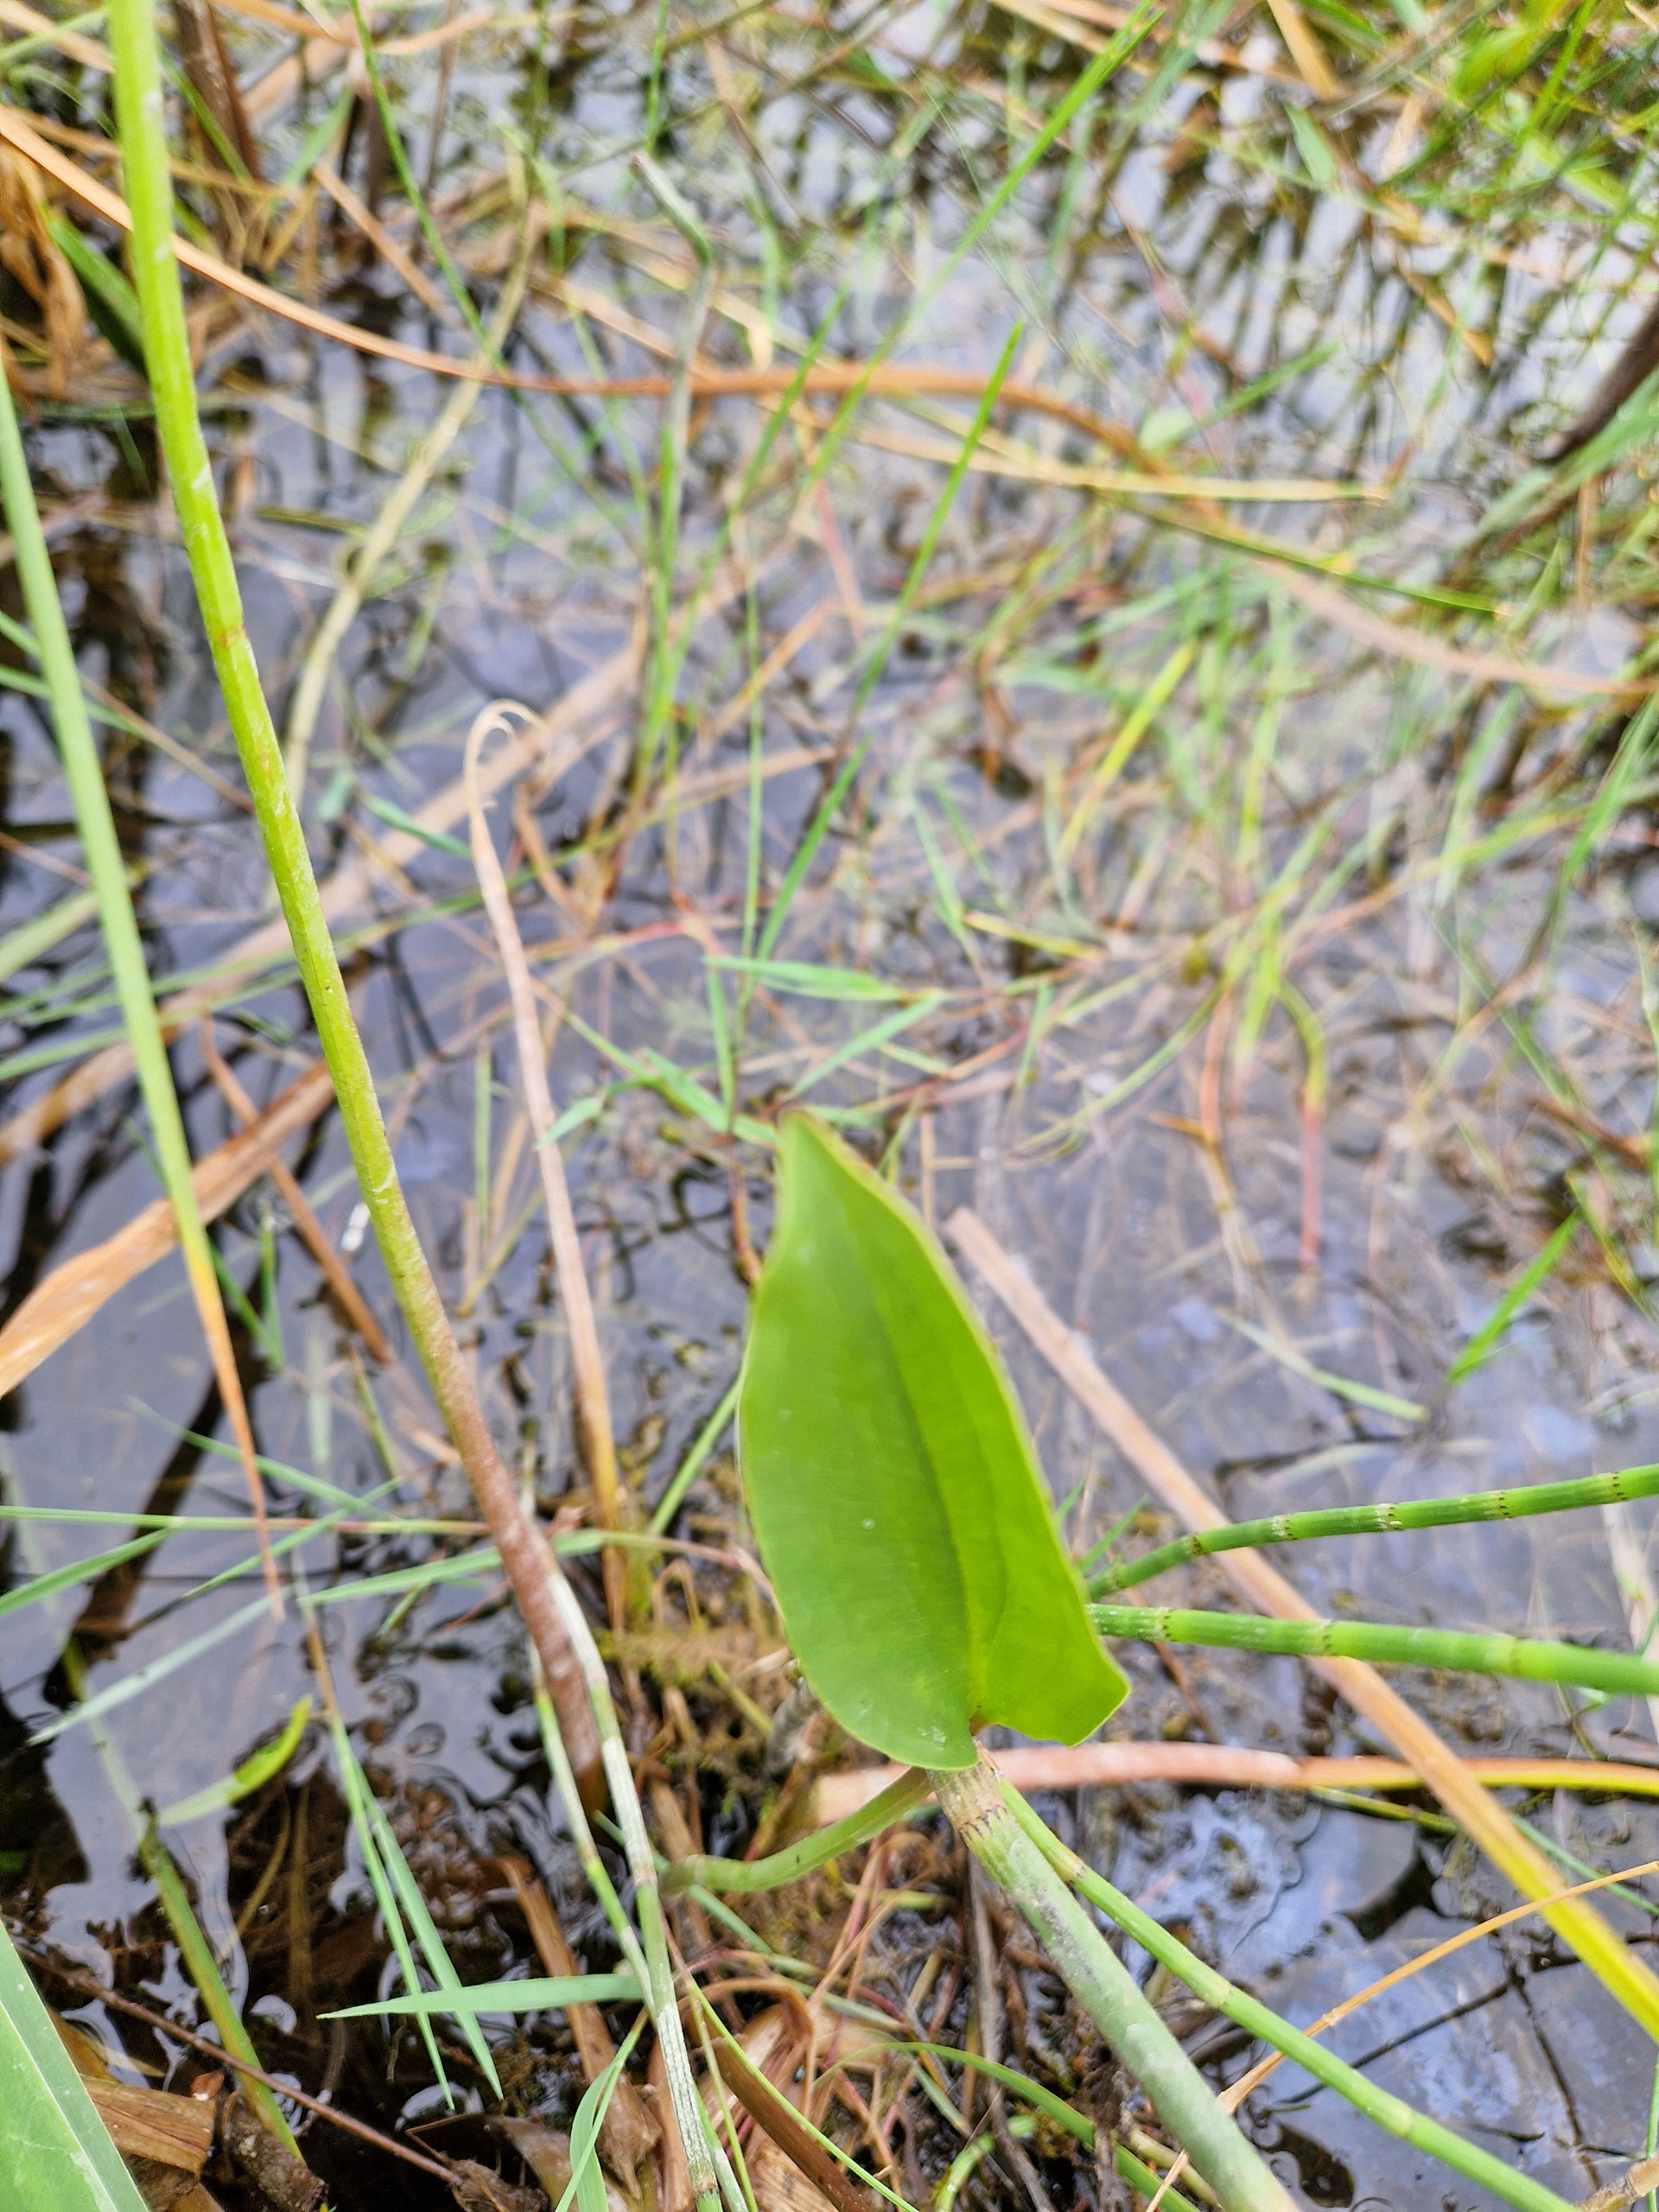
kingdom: Plantae
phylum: Tracheophyta
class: Liliopsida
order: Alismatales
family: Alismataceae
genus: Alisma
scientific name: Alisma plantago-aquatica
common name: Vejbred-skeblad
